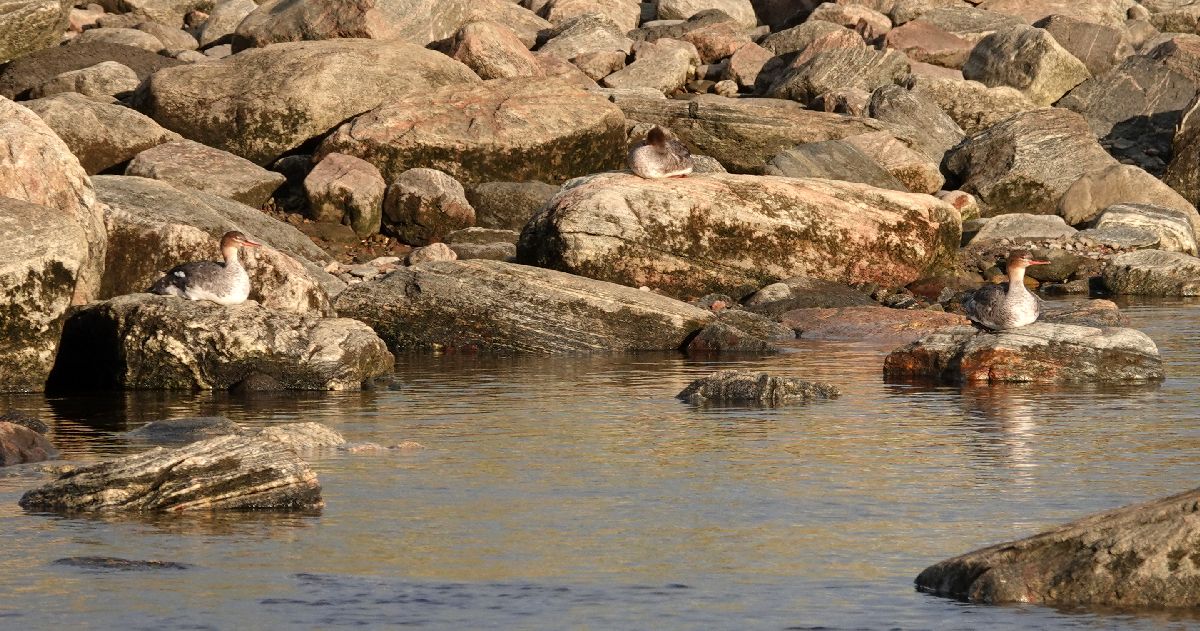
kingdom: Animalia
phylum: Chordata
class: Aves
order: Anseriformes
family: Anatidae
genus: Mergus
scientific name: Mergus serrator
